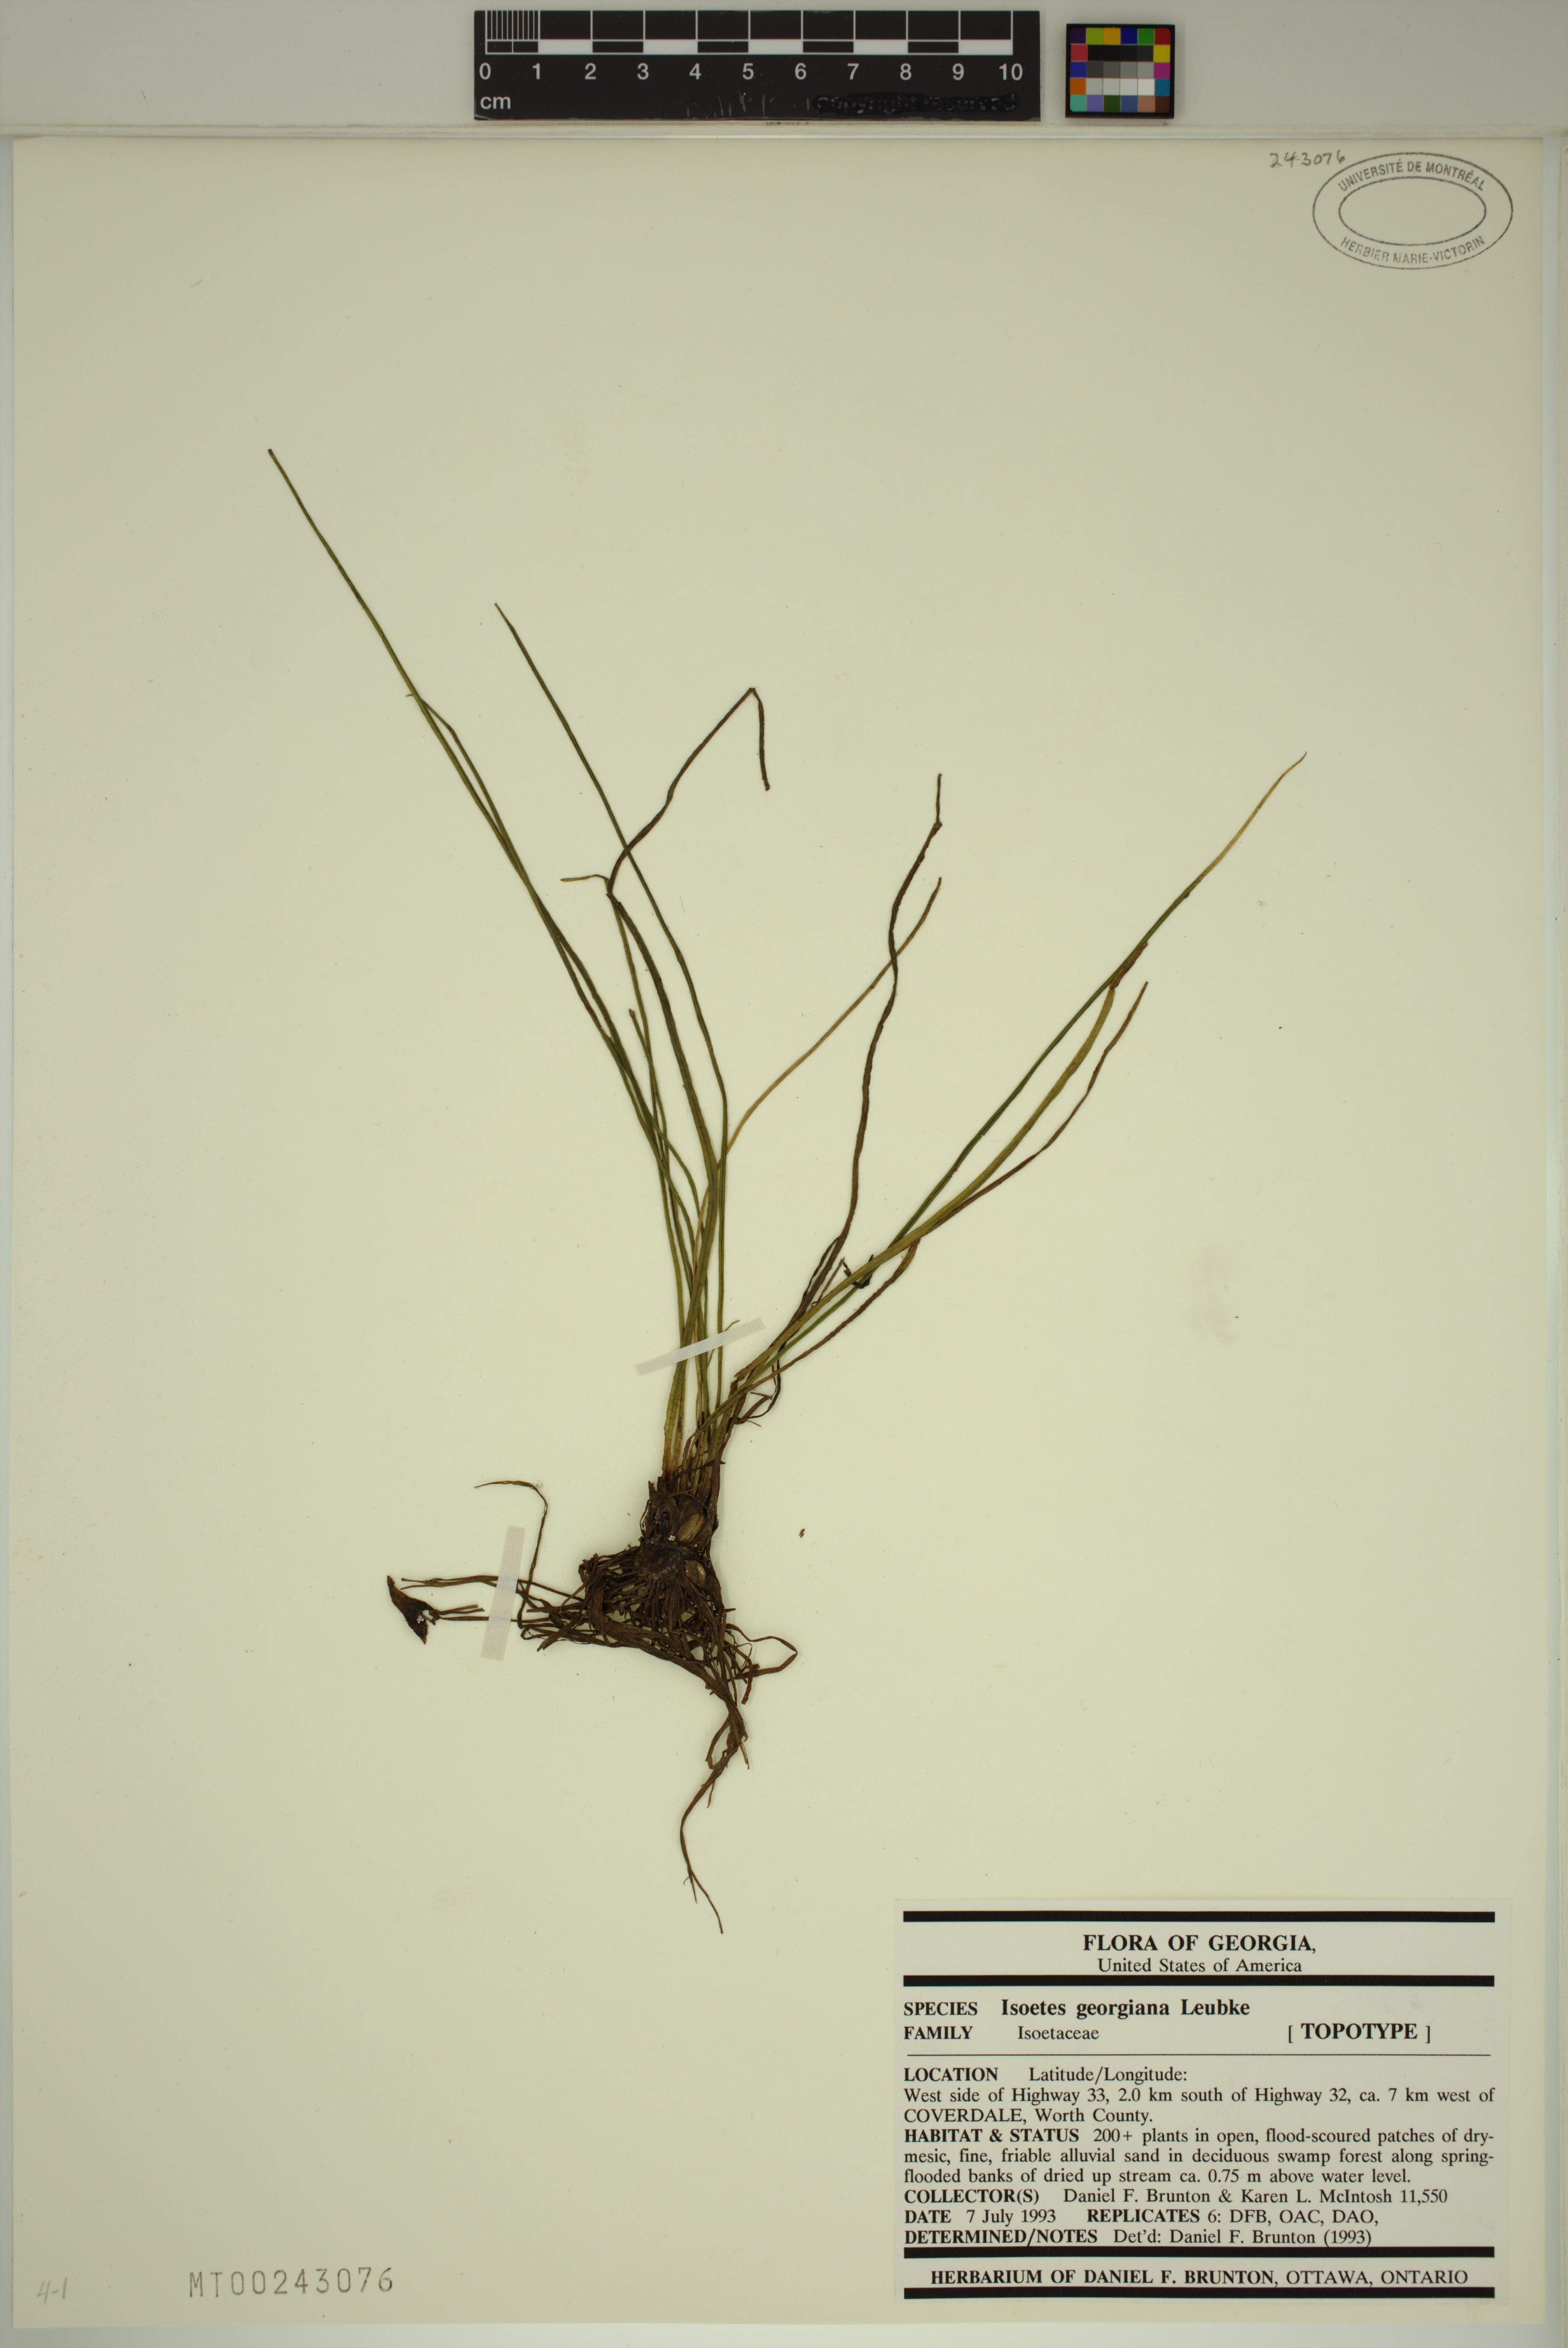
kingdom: Plantae
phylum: Tracheophyta
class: Lycopodiopsida
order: Isoetales
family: Isoetaceae
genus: Isoetes
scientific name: Isoetes georgiana
